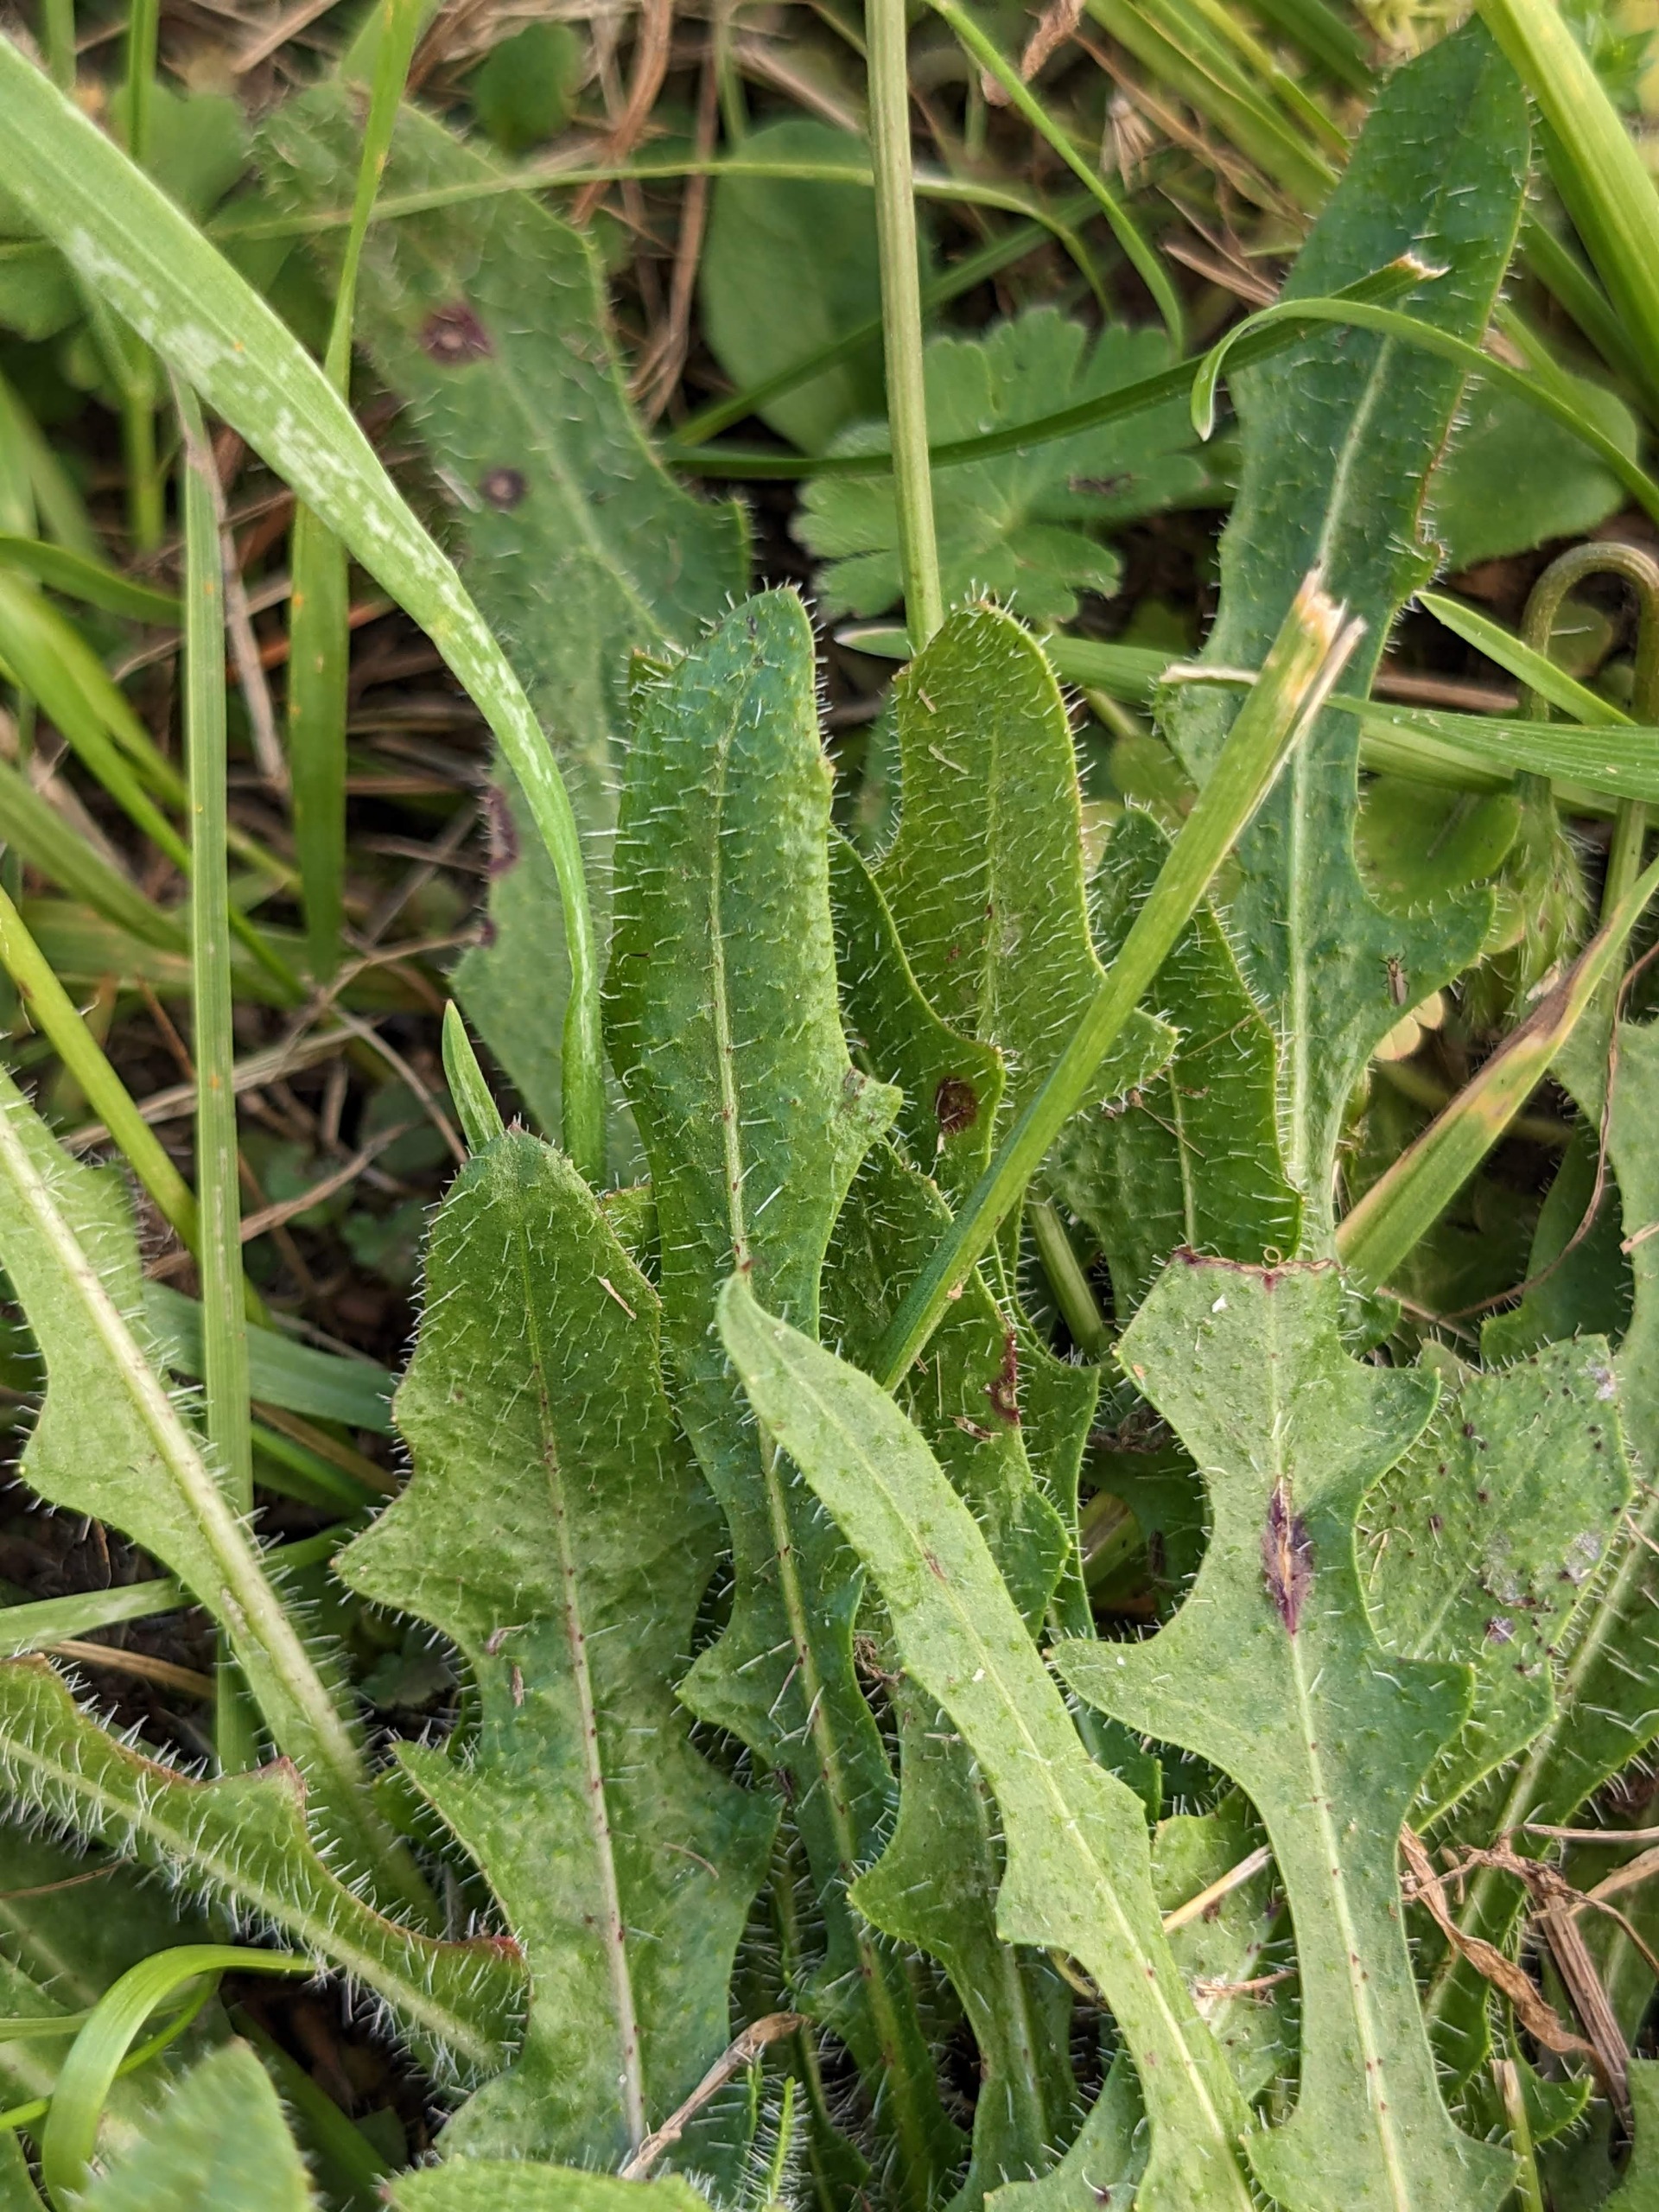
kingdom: Plantae
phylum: Tracheophyta
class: Magnoliopsida
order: Asterales
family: Asteraceae
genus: Thrincia
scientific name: Thrincia saxatilis
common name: Hundesalat
